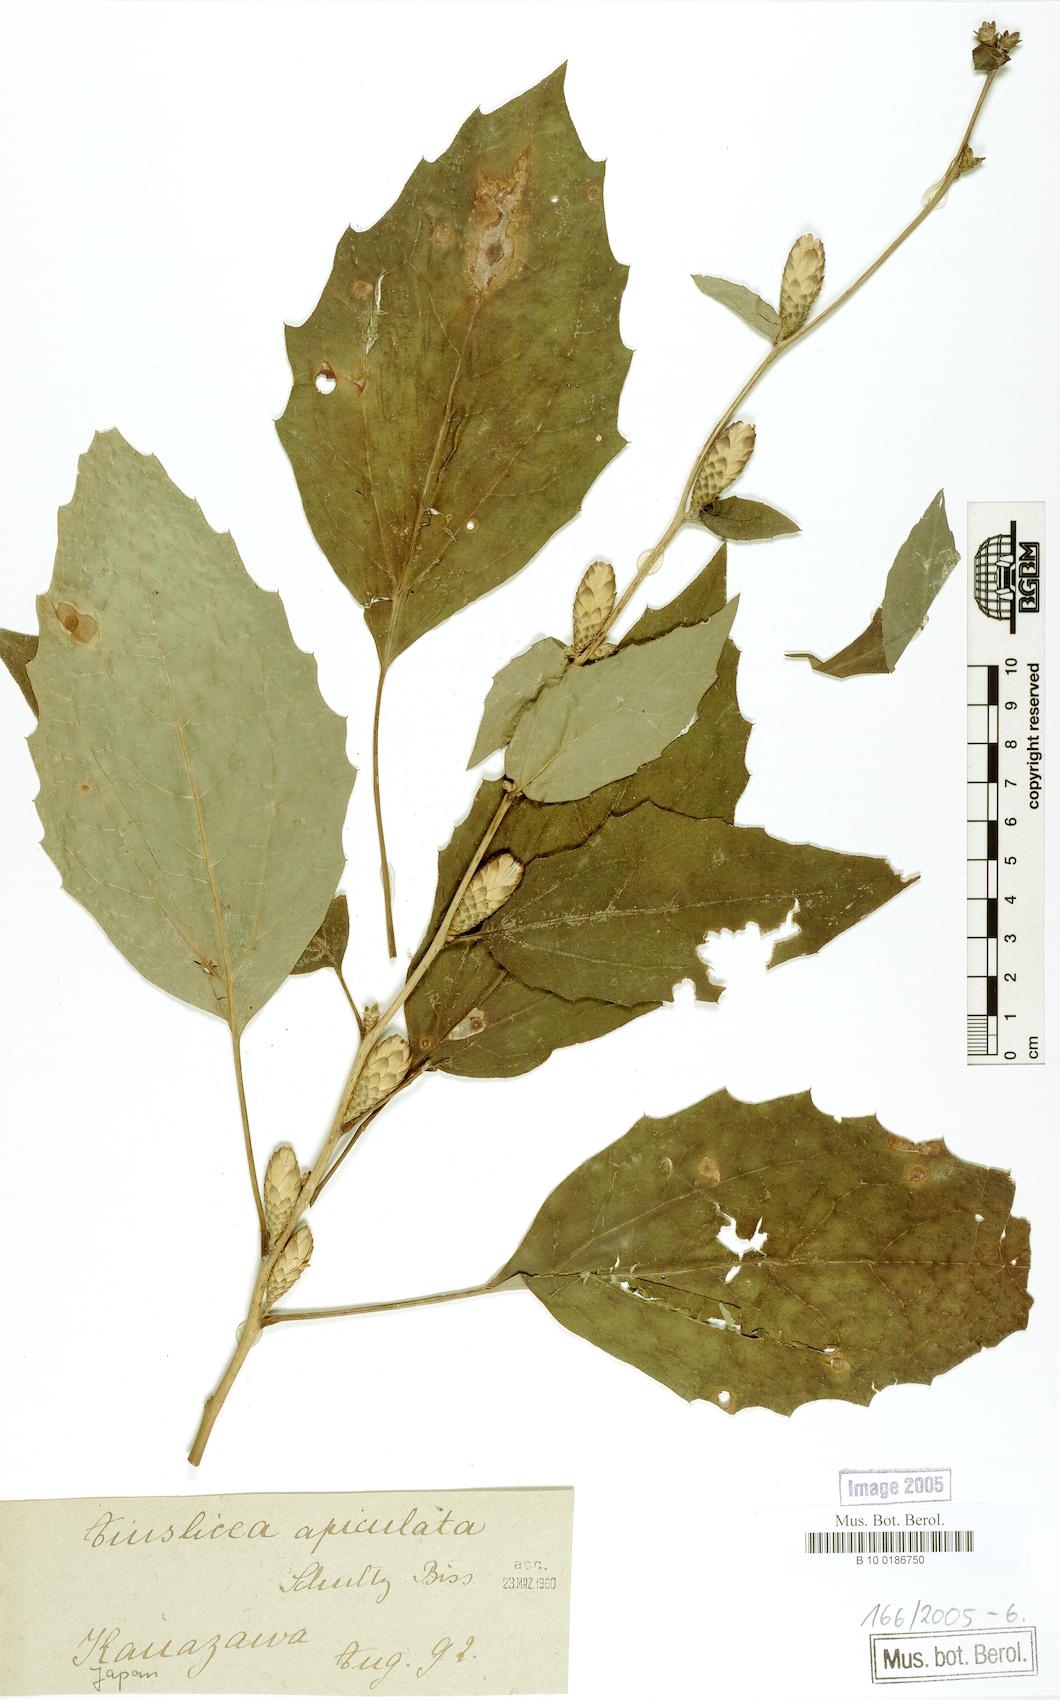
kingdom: Plantae
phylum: Tracheophyta
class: Magnoliopsida
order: Asterales
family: Asteraceae
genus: Ainsliaea
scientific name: Ainsliaea apiculata
